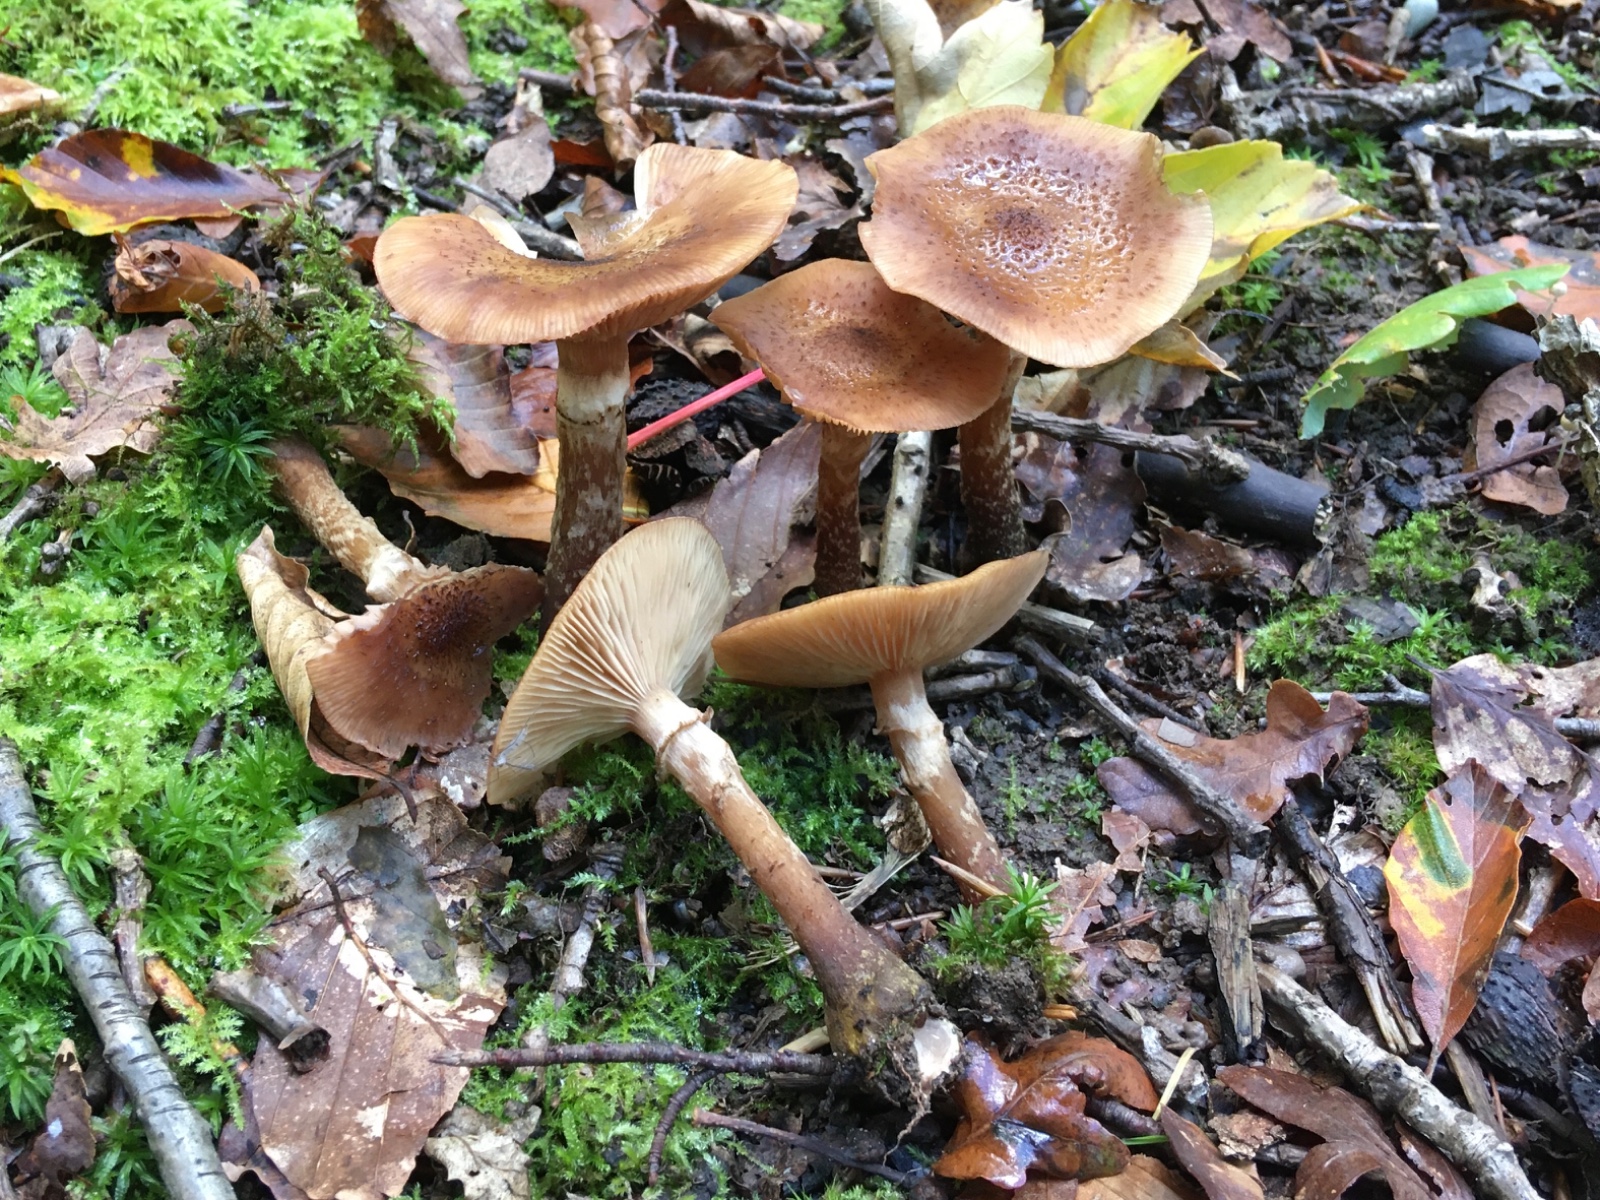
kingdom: Fungi
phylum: Basidiomycota
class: Agaricomycetes
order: Agaricales
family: Physalacriaceae
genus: Armillaria
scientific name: Armillaria ostoyae
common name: mørk honningsvamp
